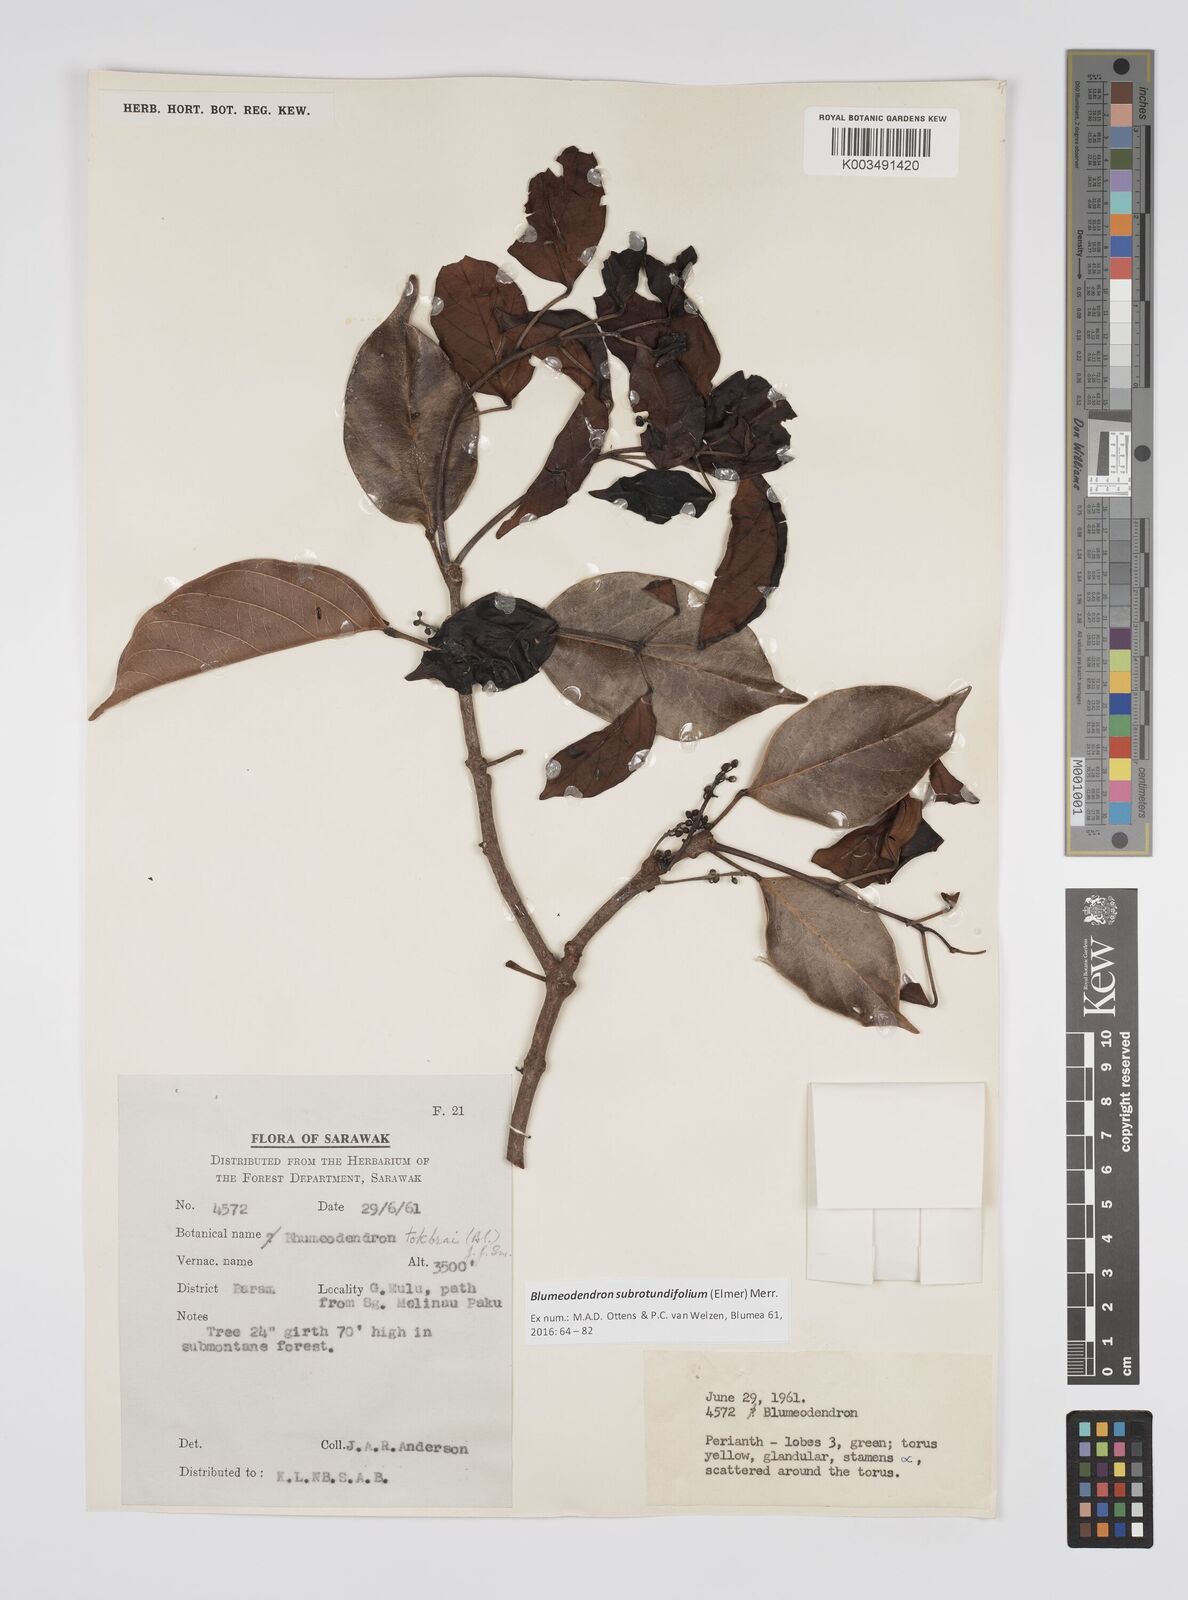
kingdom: Plantae
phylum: Tracheophyta
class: Magnoliopsida
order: Malpighiales
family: Euphorbiaceae
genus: Blumeodendron
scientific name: Blumeodendron subrotundifolium
